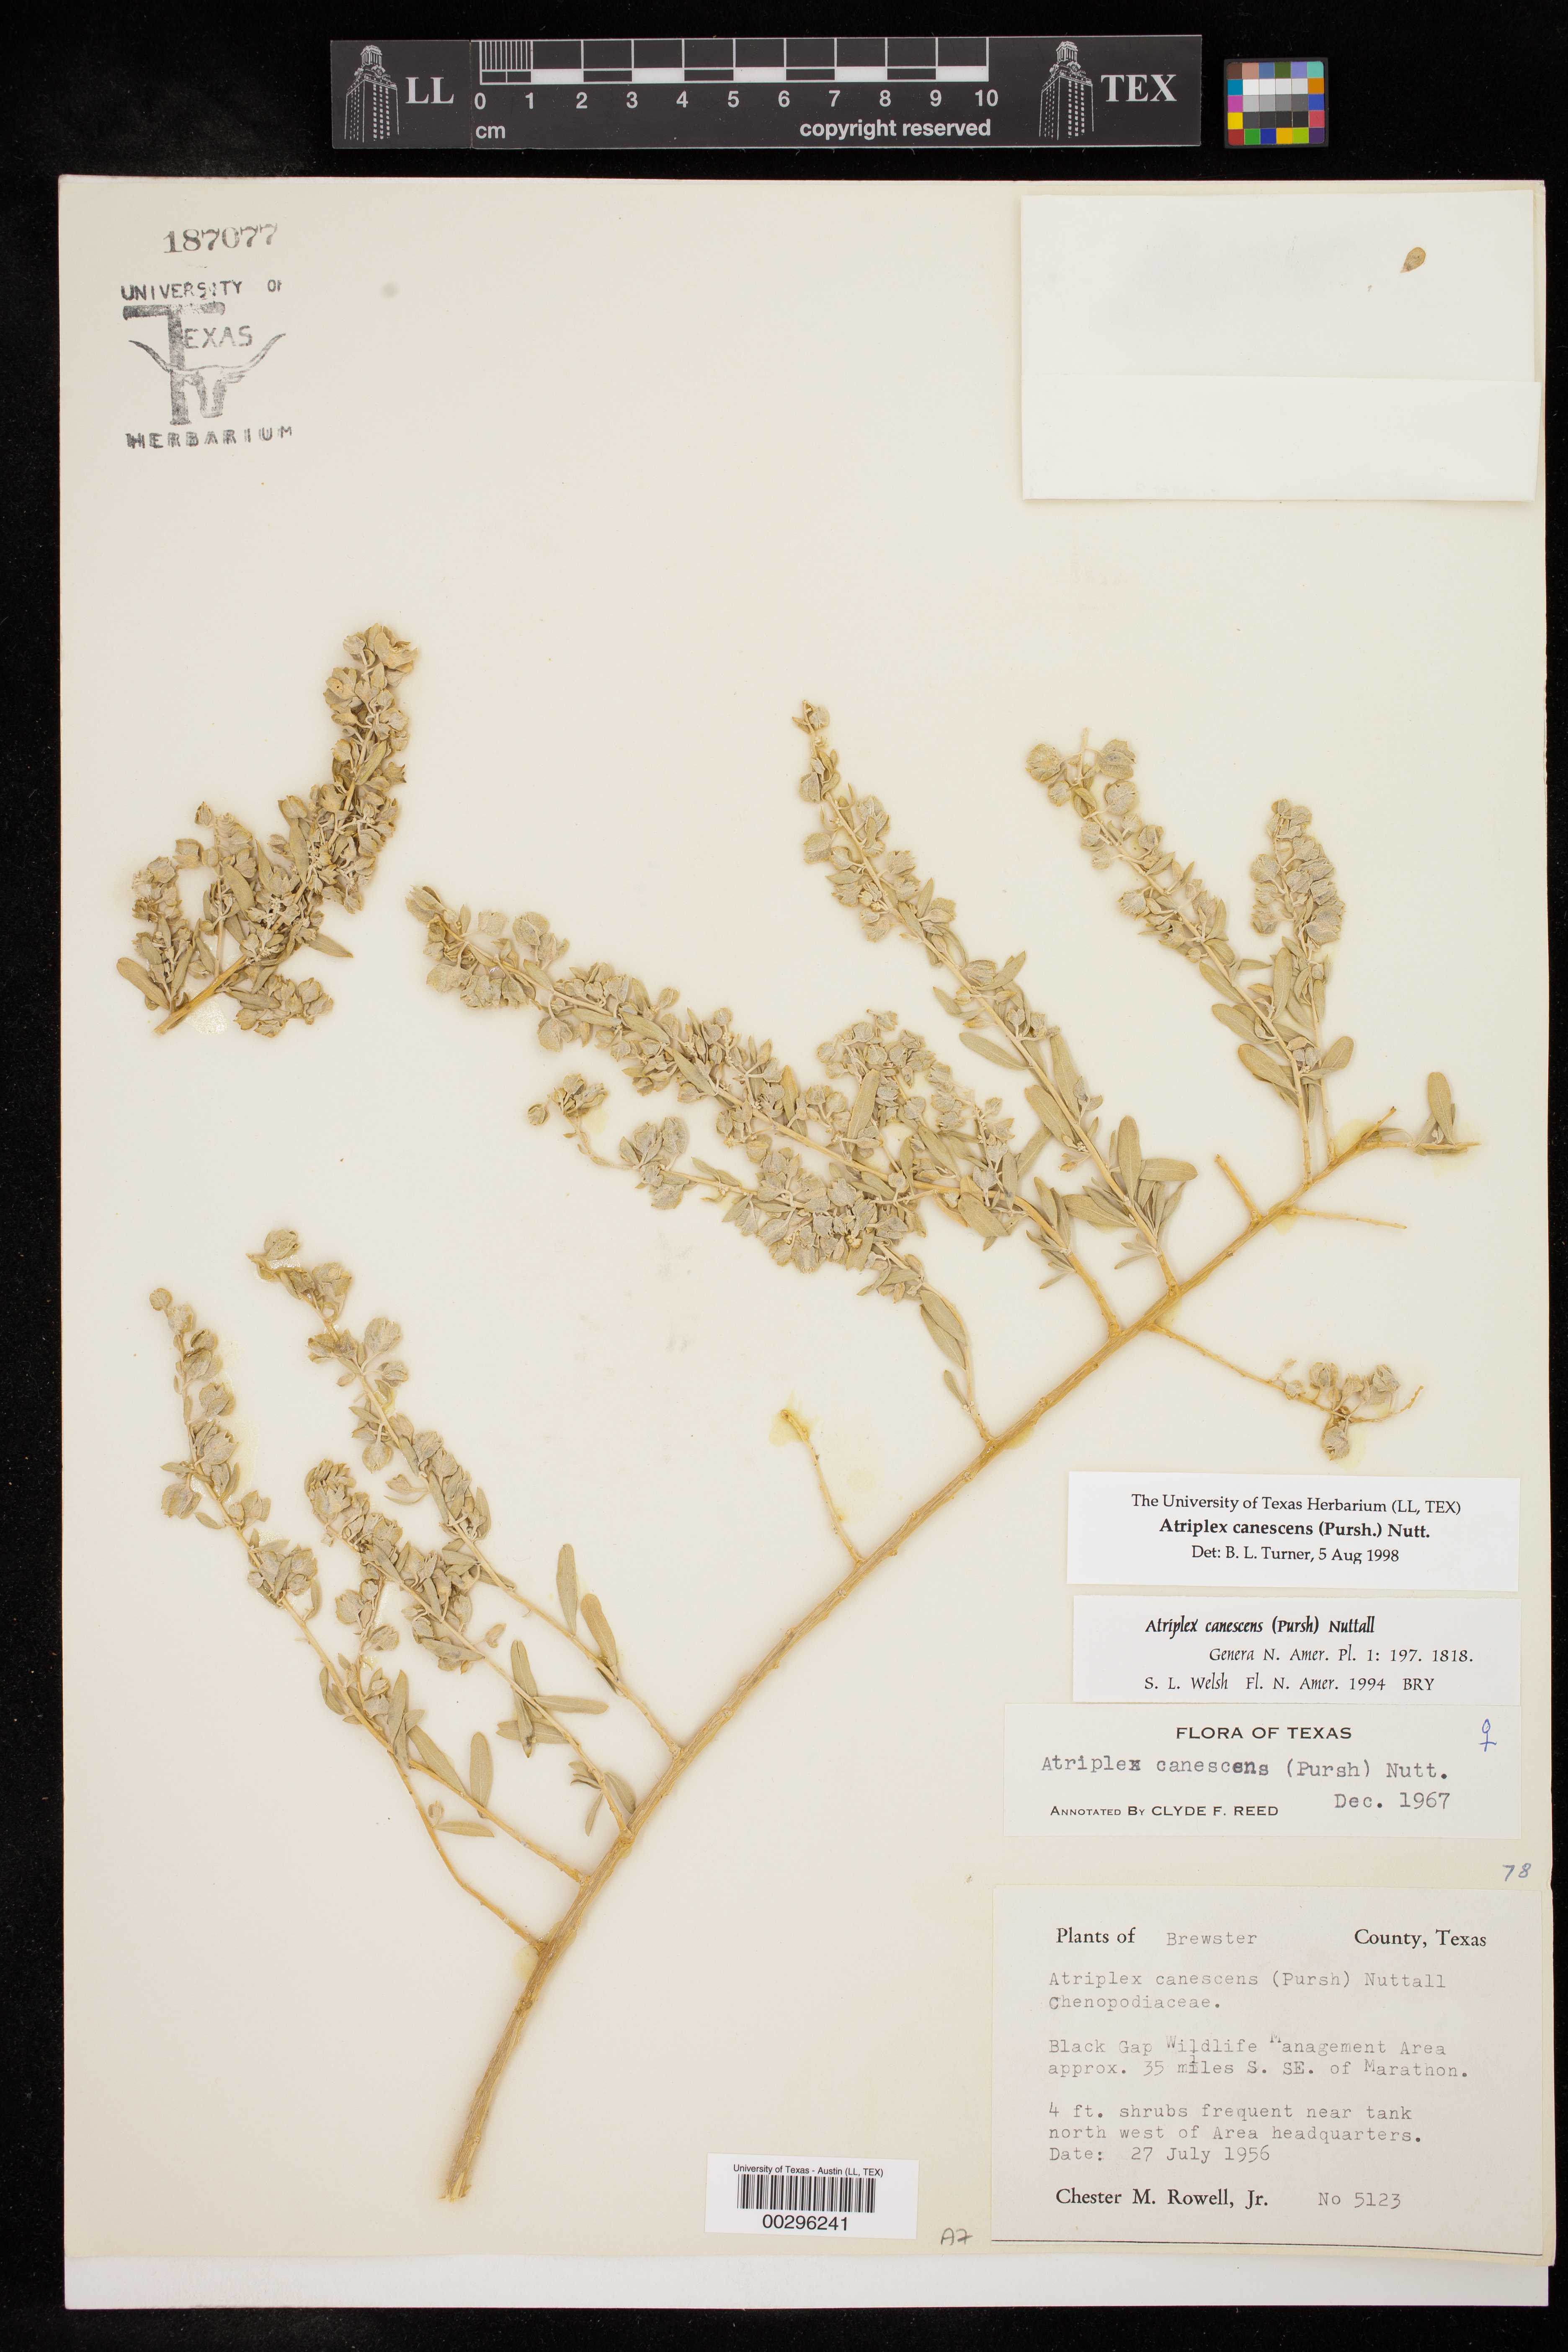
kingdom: Plantae
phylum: Tracheophyta
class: Magnoliopsida
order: Caryophyllales
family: Amaranthaceae
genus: Atriplex
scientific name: Atriplex canescens
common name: Four-wing saltbush
